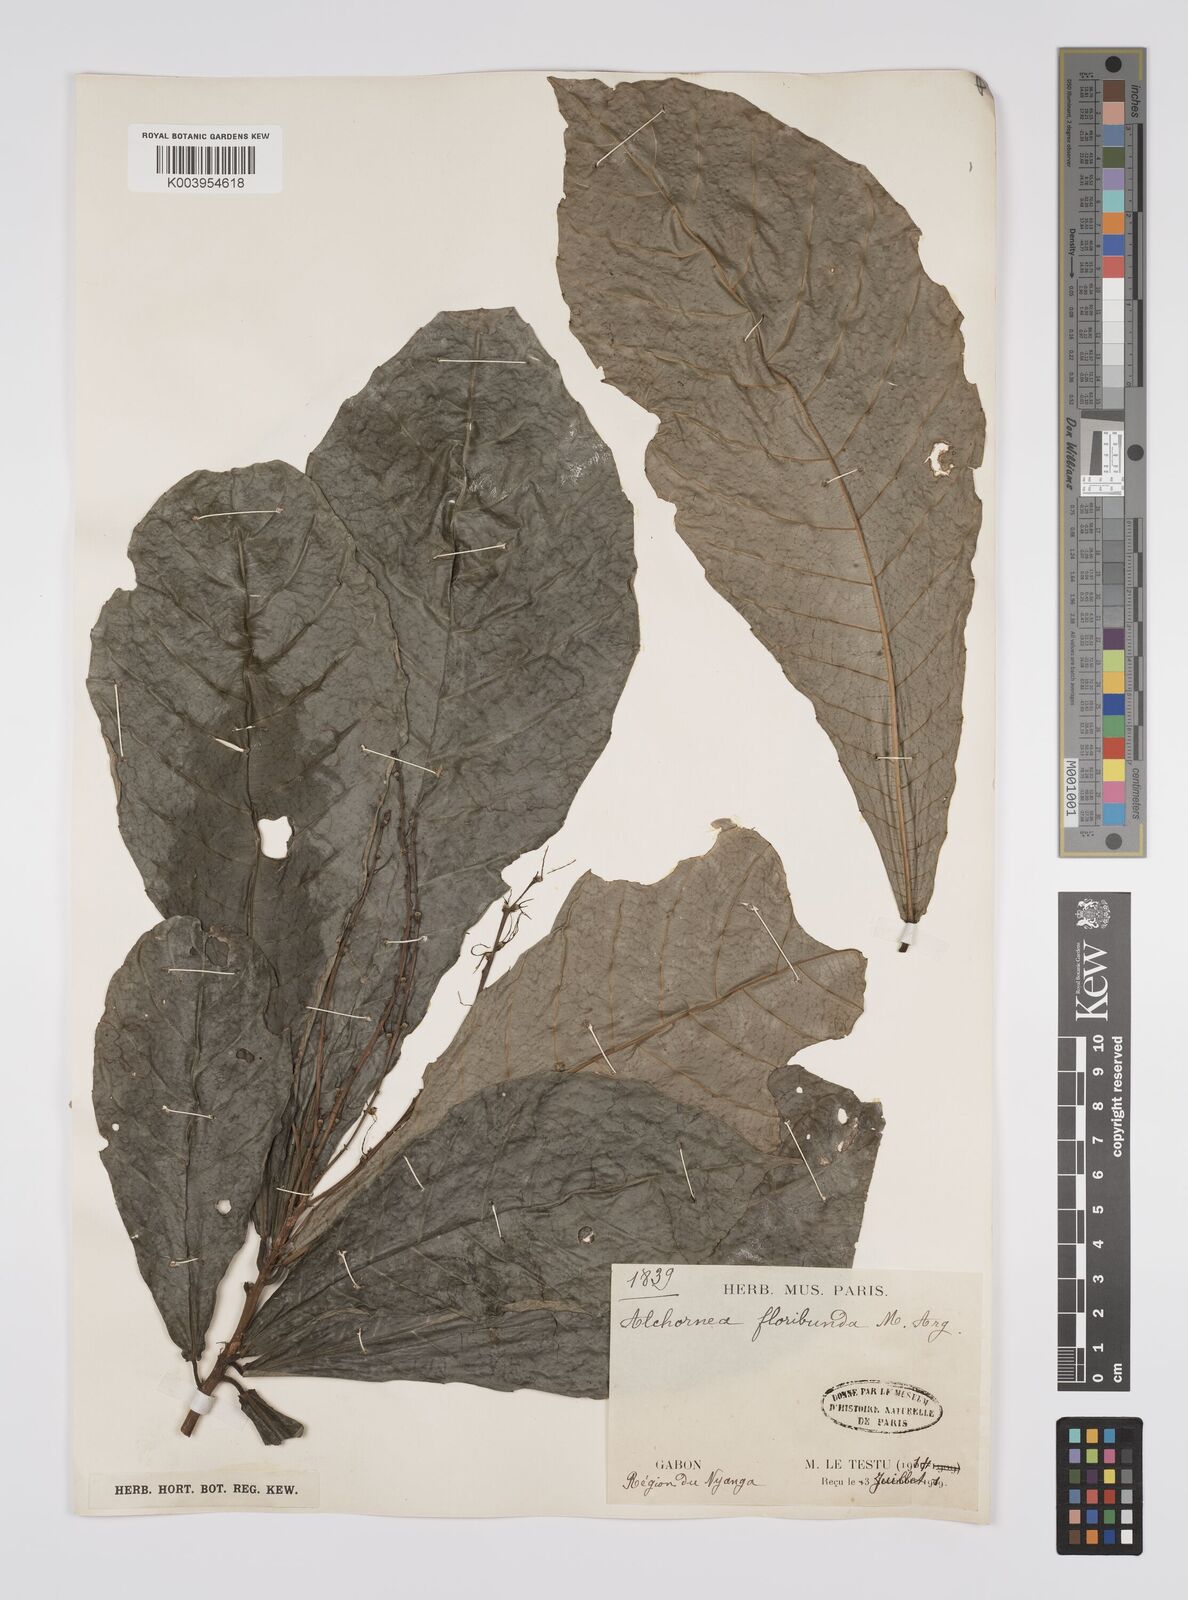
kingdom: Plantae
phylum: Tracheophyta
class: Magnoliopsida
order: Malpighiales
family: Euphorbiaceae
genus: Alchornea
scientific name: Alchornea floribunda
